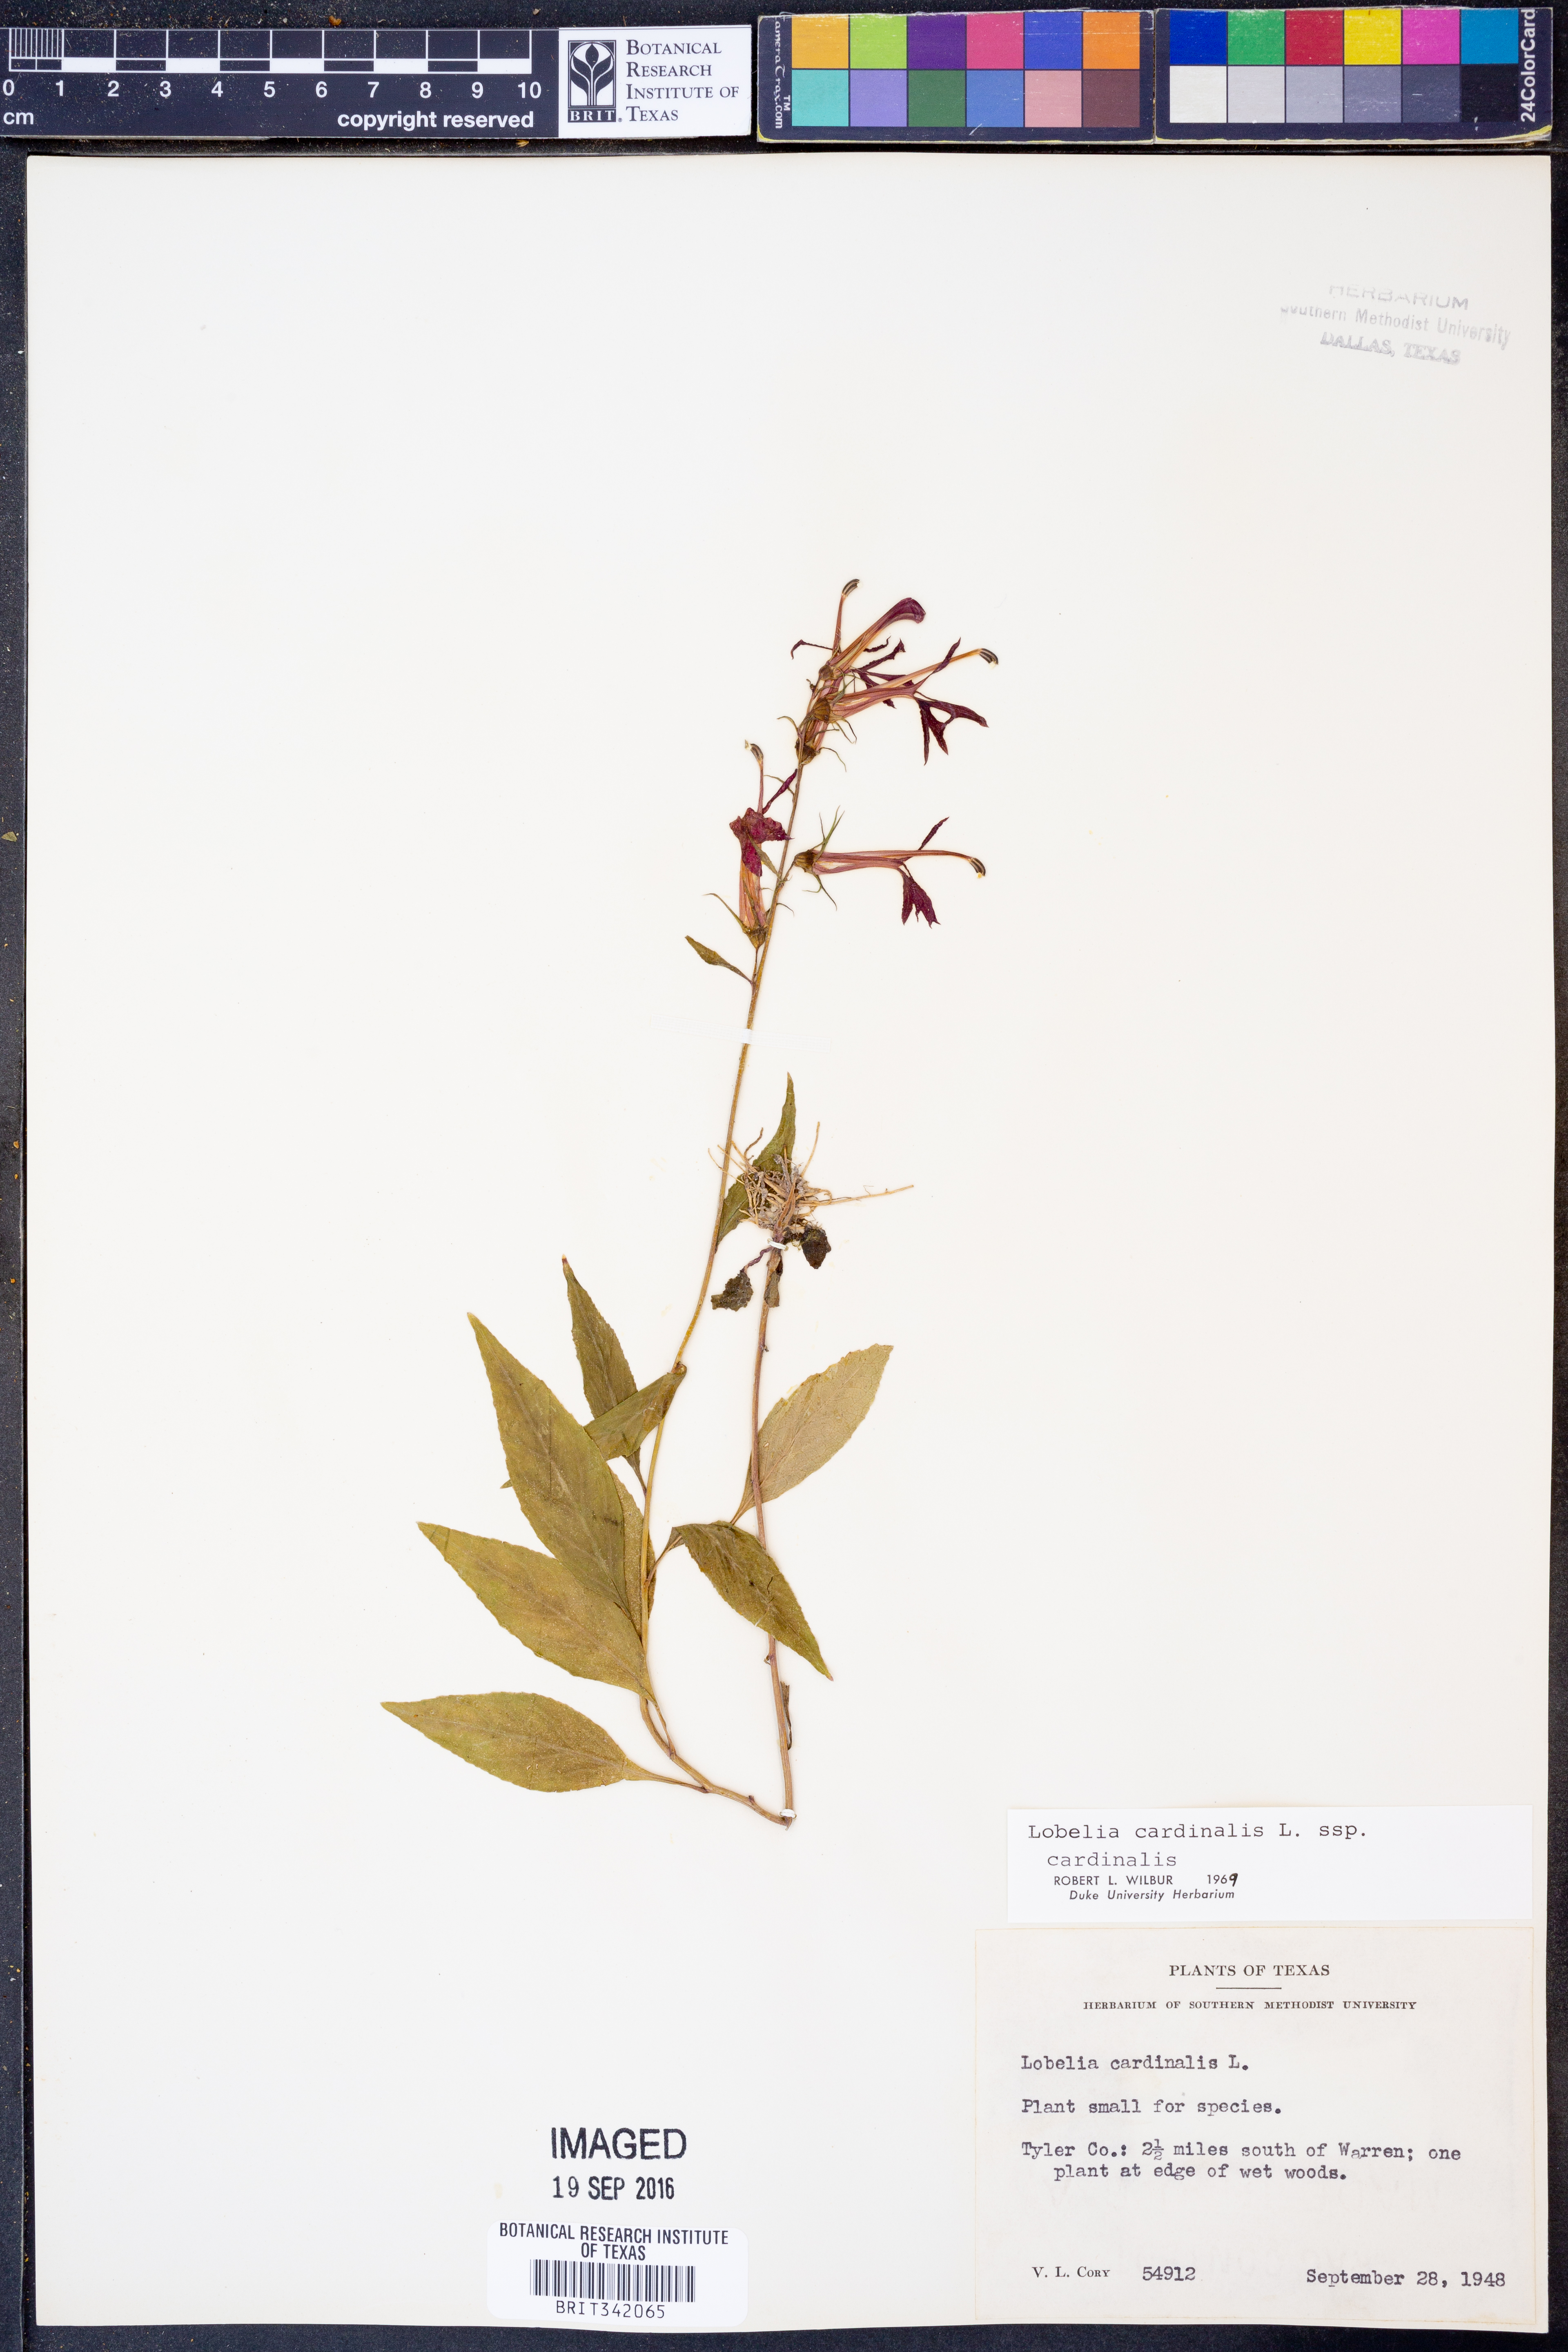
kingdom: Plantae
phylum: Tracheophyta
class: Magnoliopsida
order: Asterales
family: Campanulaceae
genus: Lobelia
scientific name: Lobelia cardinalis
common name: Cardinal flower
